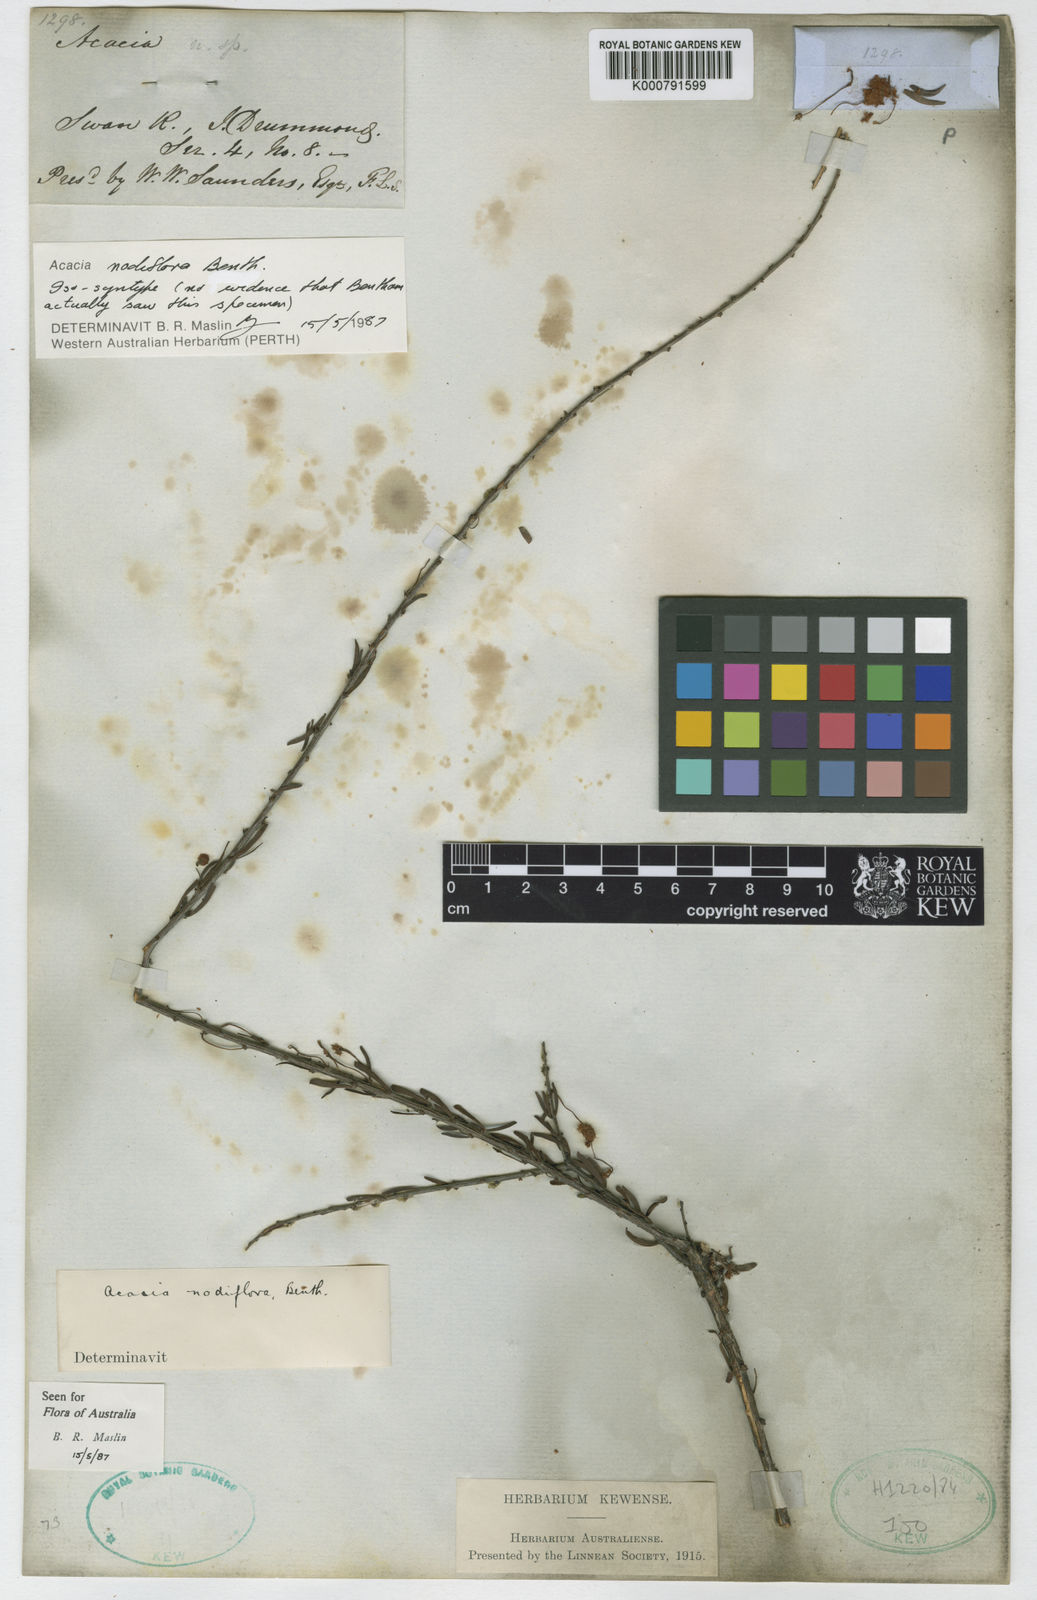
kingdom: Plantae
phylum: Tracheophyta
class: Magnoliopsida
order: Fabales
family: Fabaceae
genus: Acacia
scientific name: Acacia nodiflora
